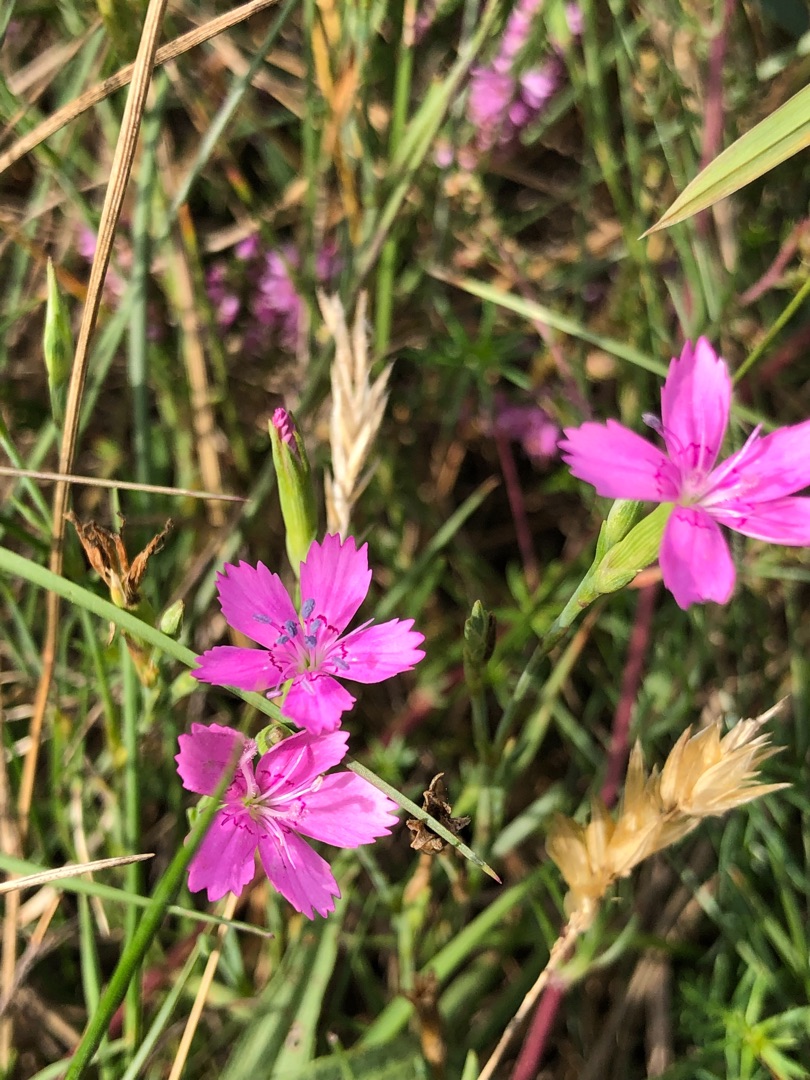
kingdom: Plantae
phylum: Tracheophyta
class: Magnoliopsida
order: Caryophyllales
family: Caryophyllaceae
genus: Dianthus
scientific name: Dianthus deltoides
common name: Bakke-nellike
